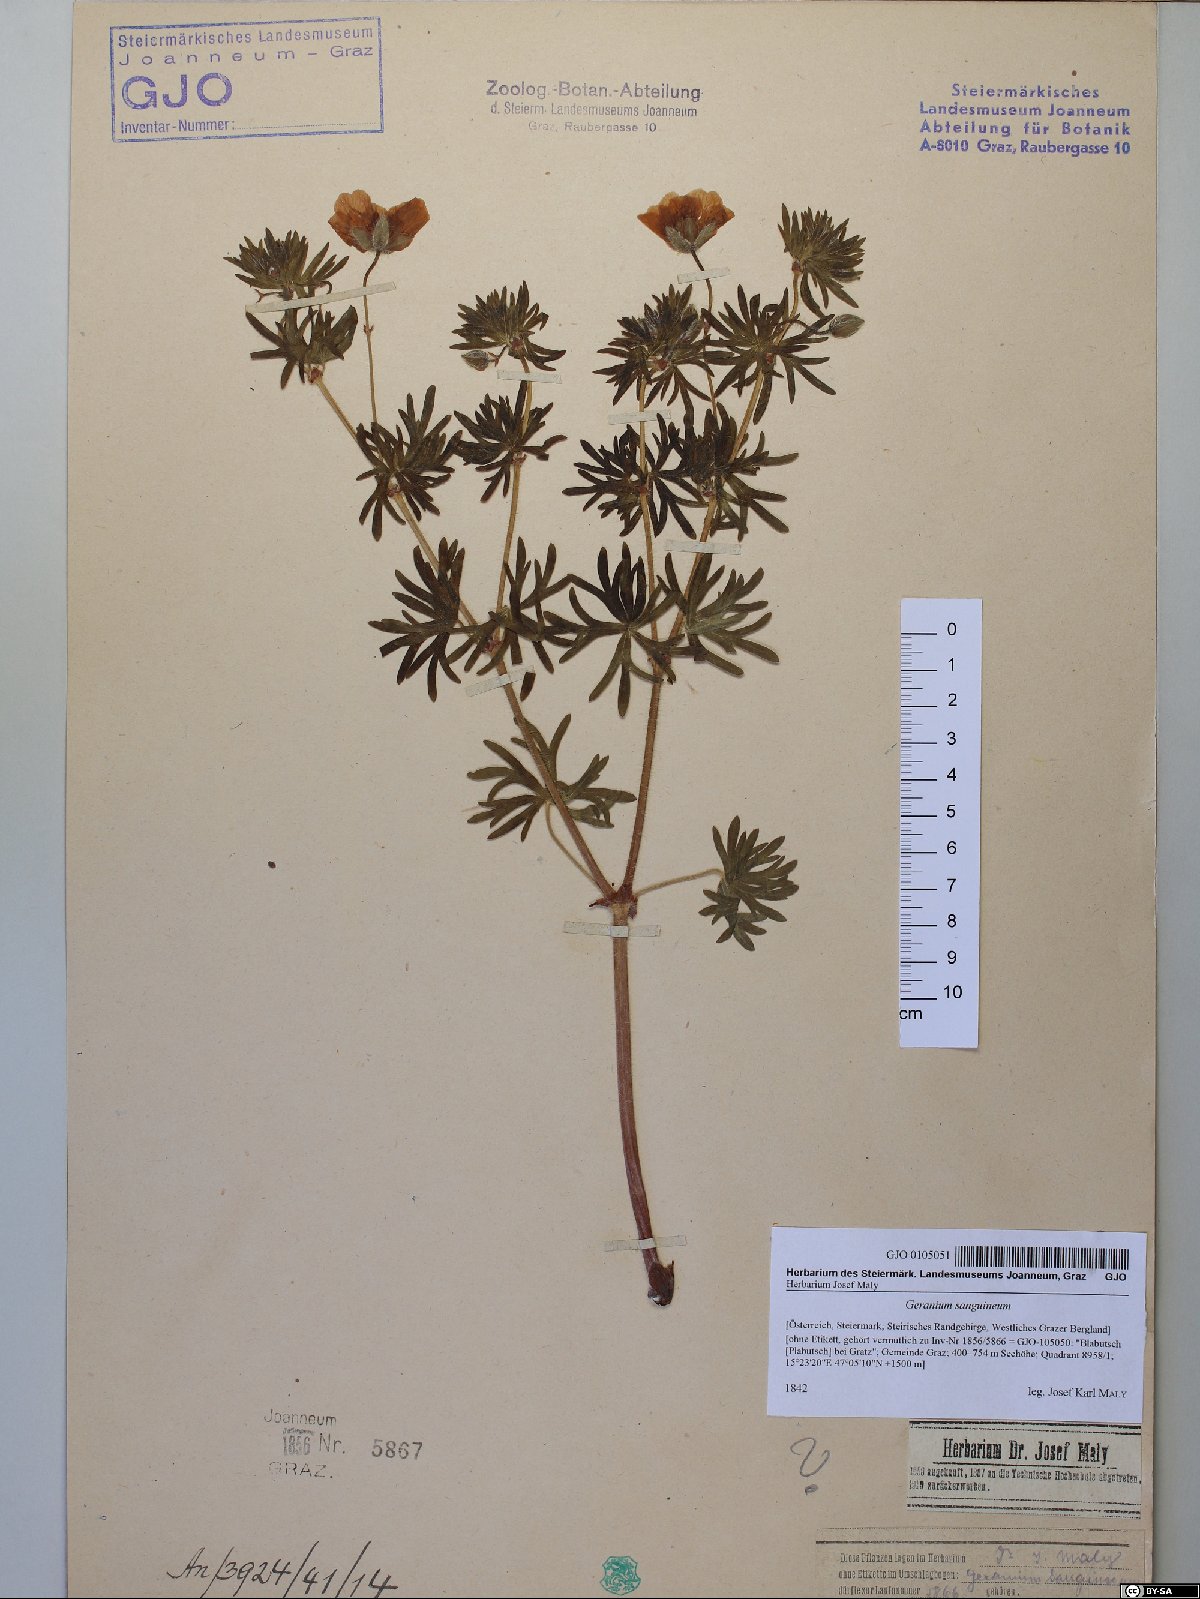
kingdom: Plantae
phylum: Tracheophyta
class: Magnoliopsida
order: Geraniales
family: Geraniaceae
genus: Geranium
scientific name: Geranium sanguineum
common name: Bloody crane's-bill
